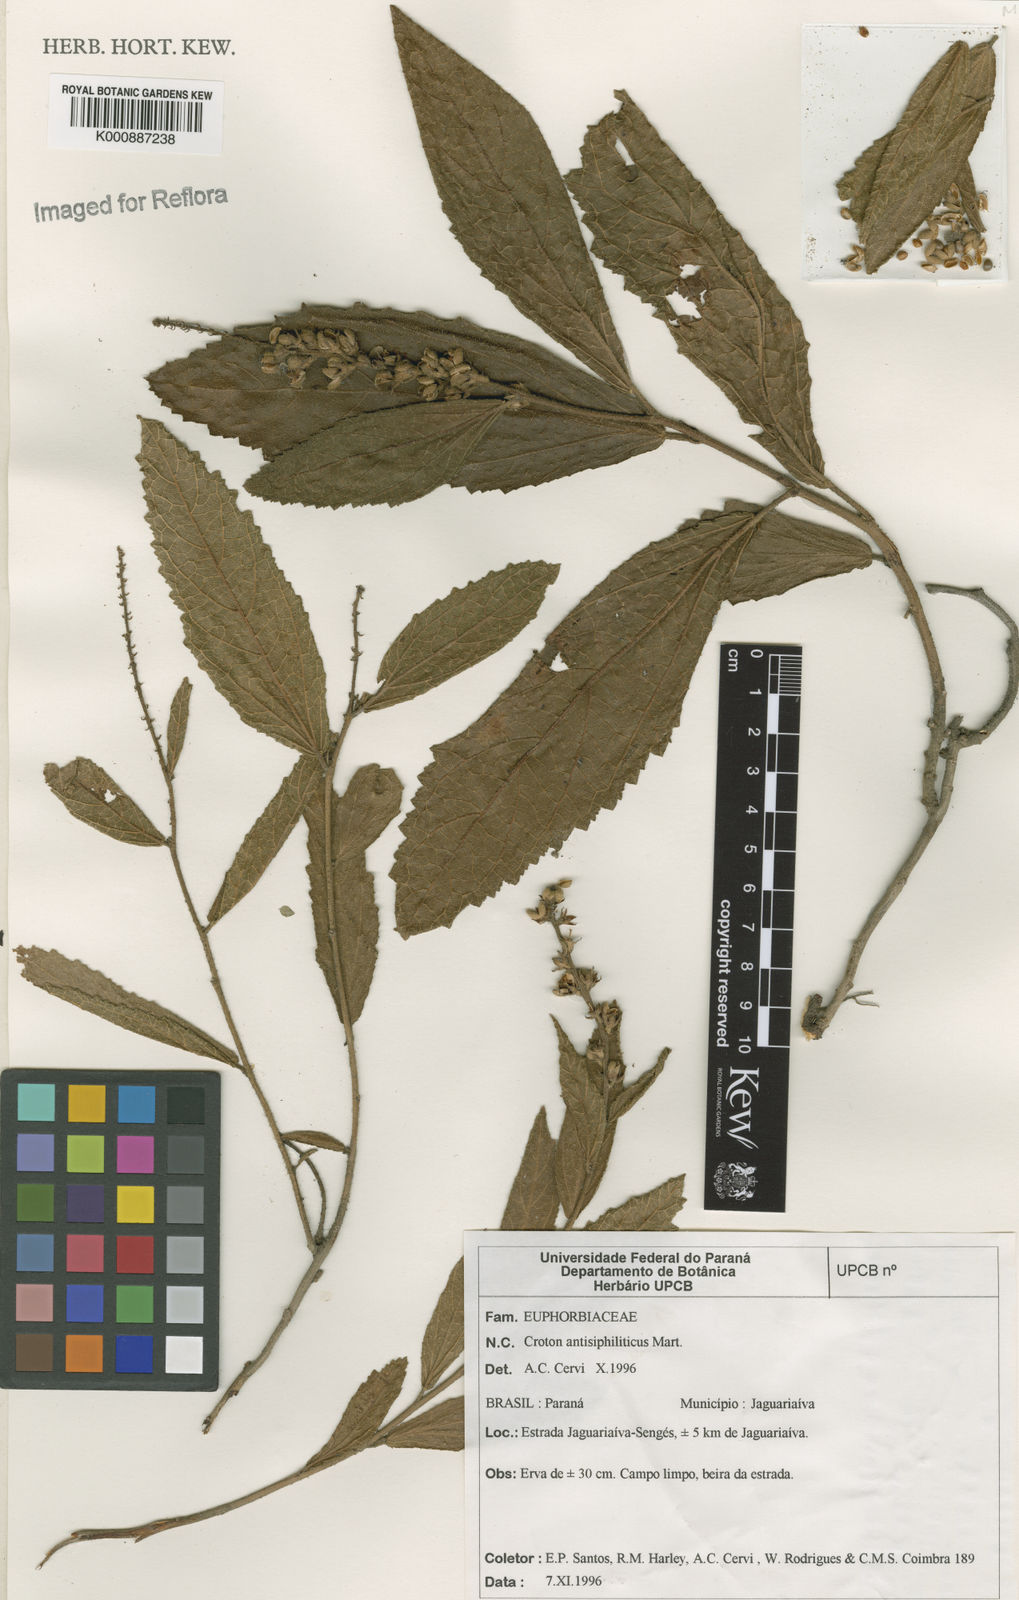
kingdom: Plantae
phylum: Tracheophyta
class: Magnoliopsida
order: Malpighiales
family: Euphorbiaceae
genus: Croton
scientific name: Croton antisyphiliticus
